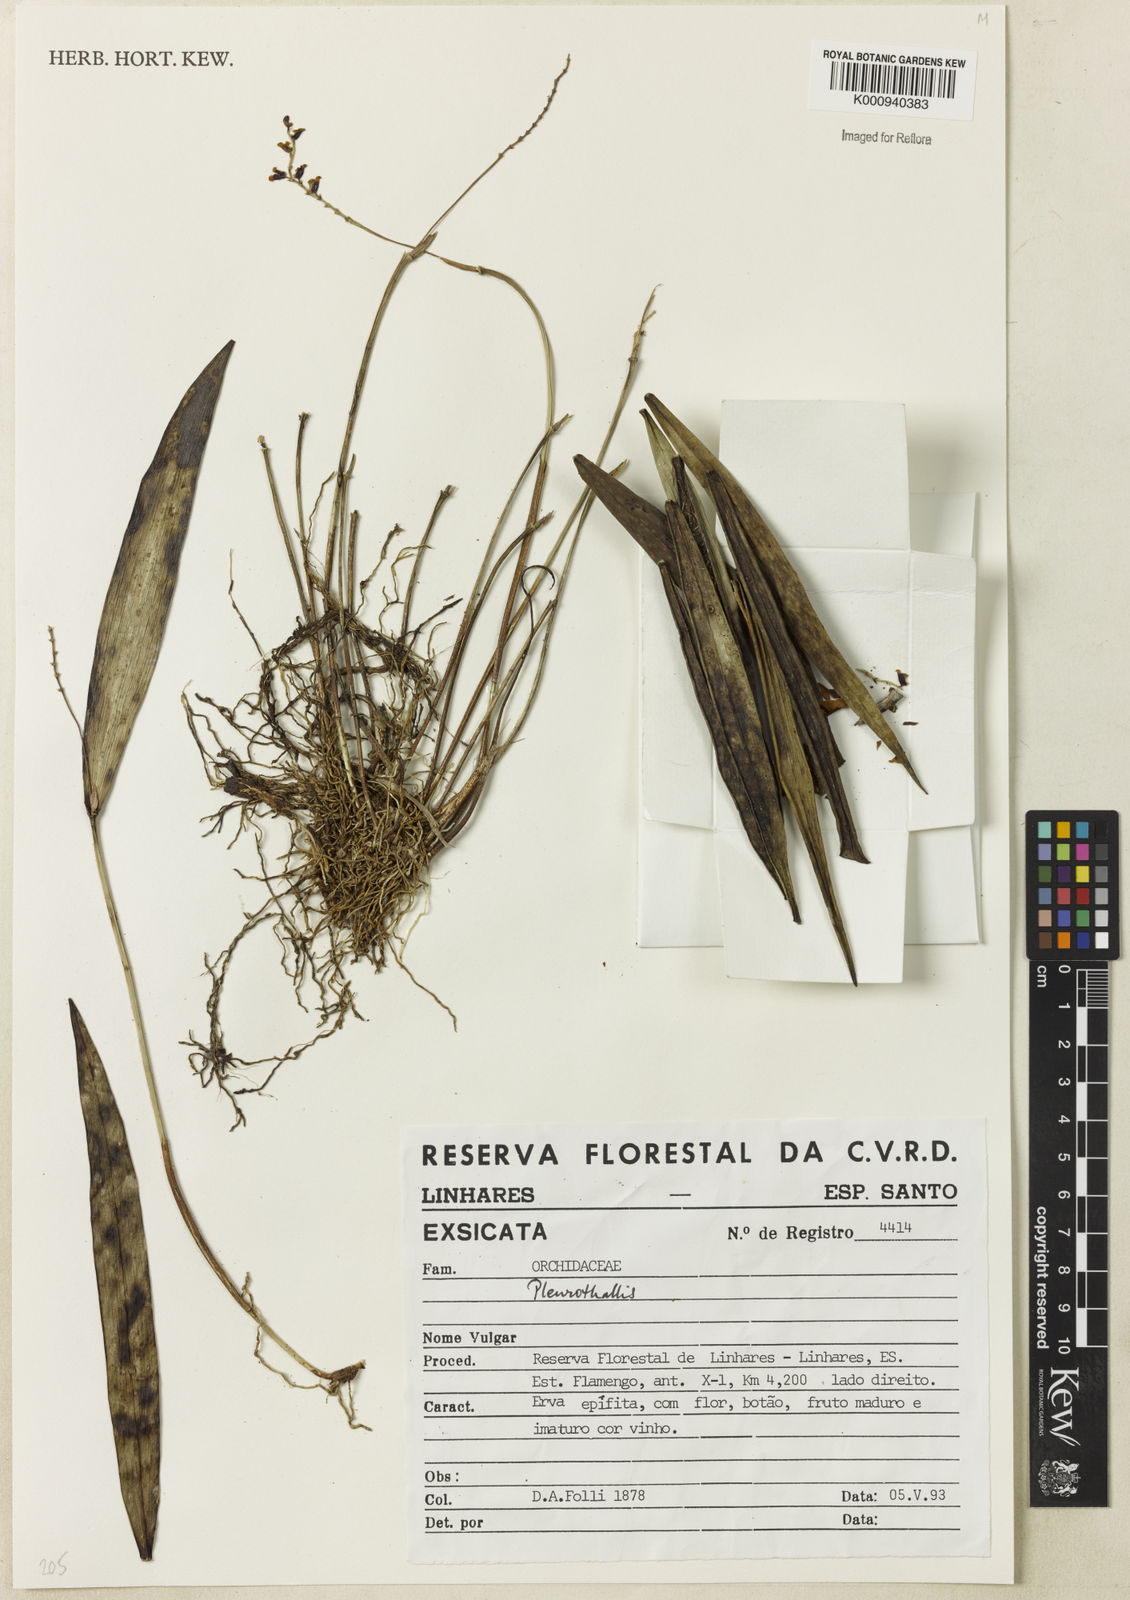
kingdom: Plantae
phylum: Tracheophyta
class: Liliopsida
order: Asparagales
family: Orchidaceae
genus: Stelis
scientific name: Stelis amoena
